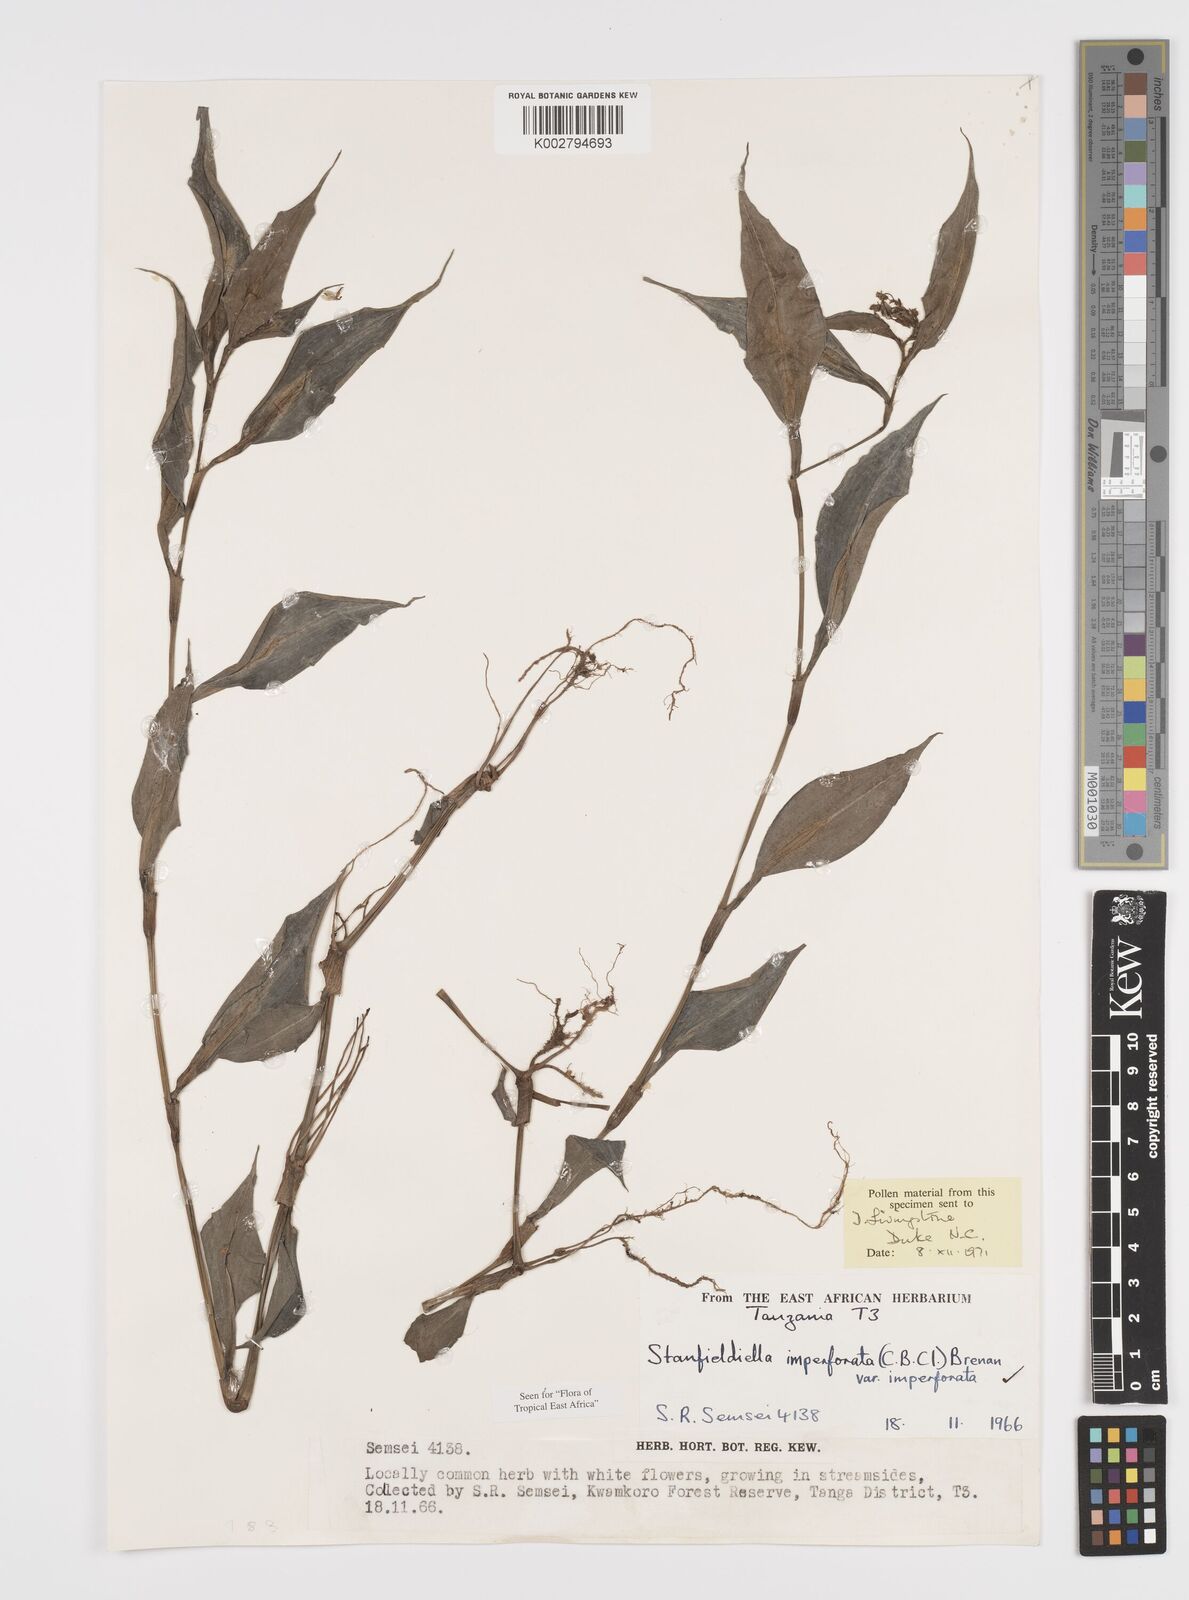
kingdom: Plantae
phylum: Tracheophyta
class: Liliopsida
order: Commelinales
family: Commelinaceae
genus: Stanfieldiella
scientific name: Stanfieldiella imperforata
